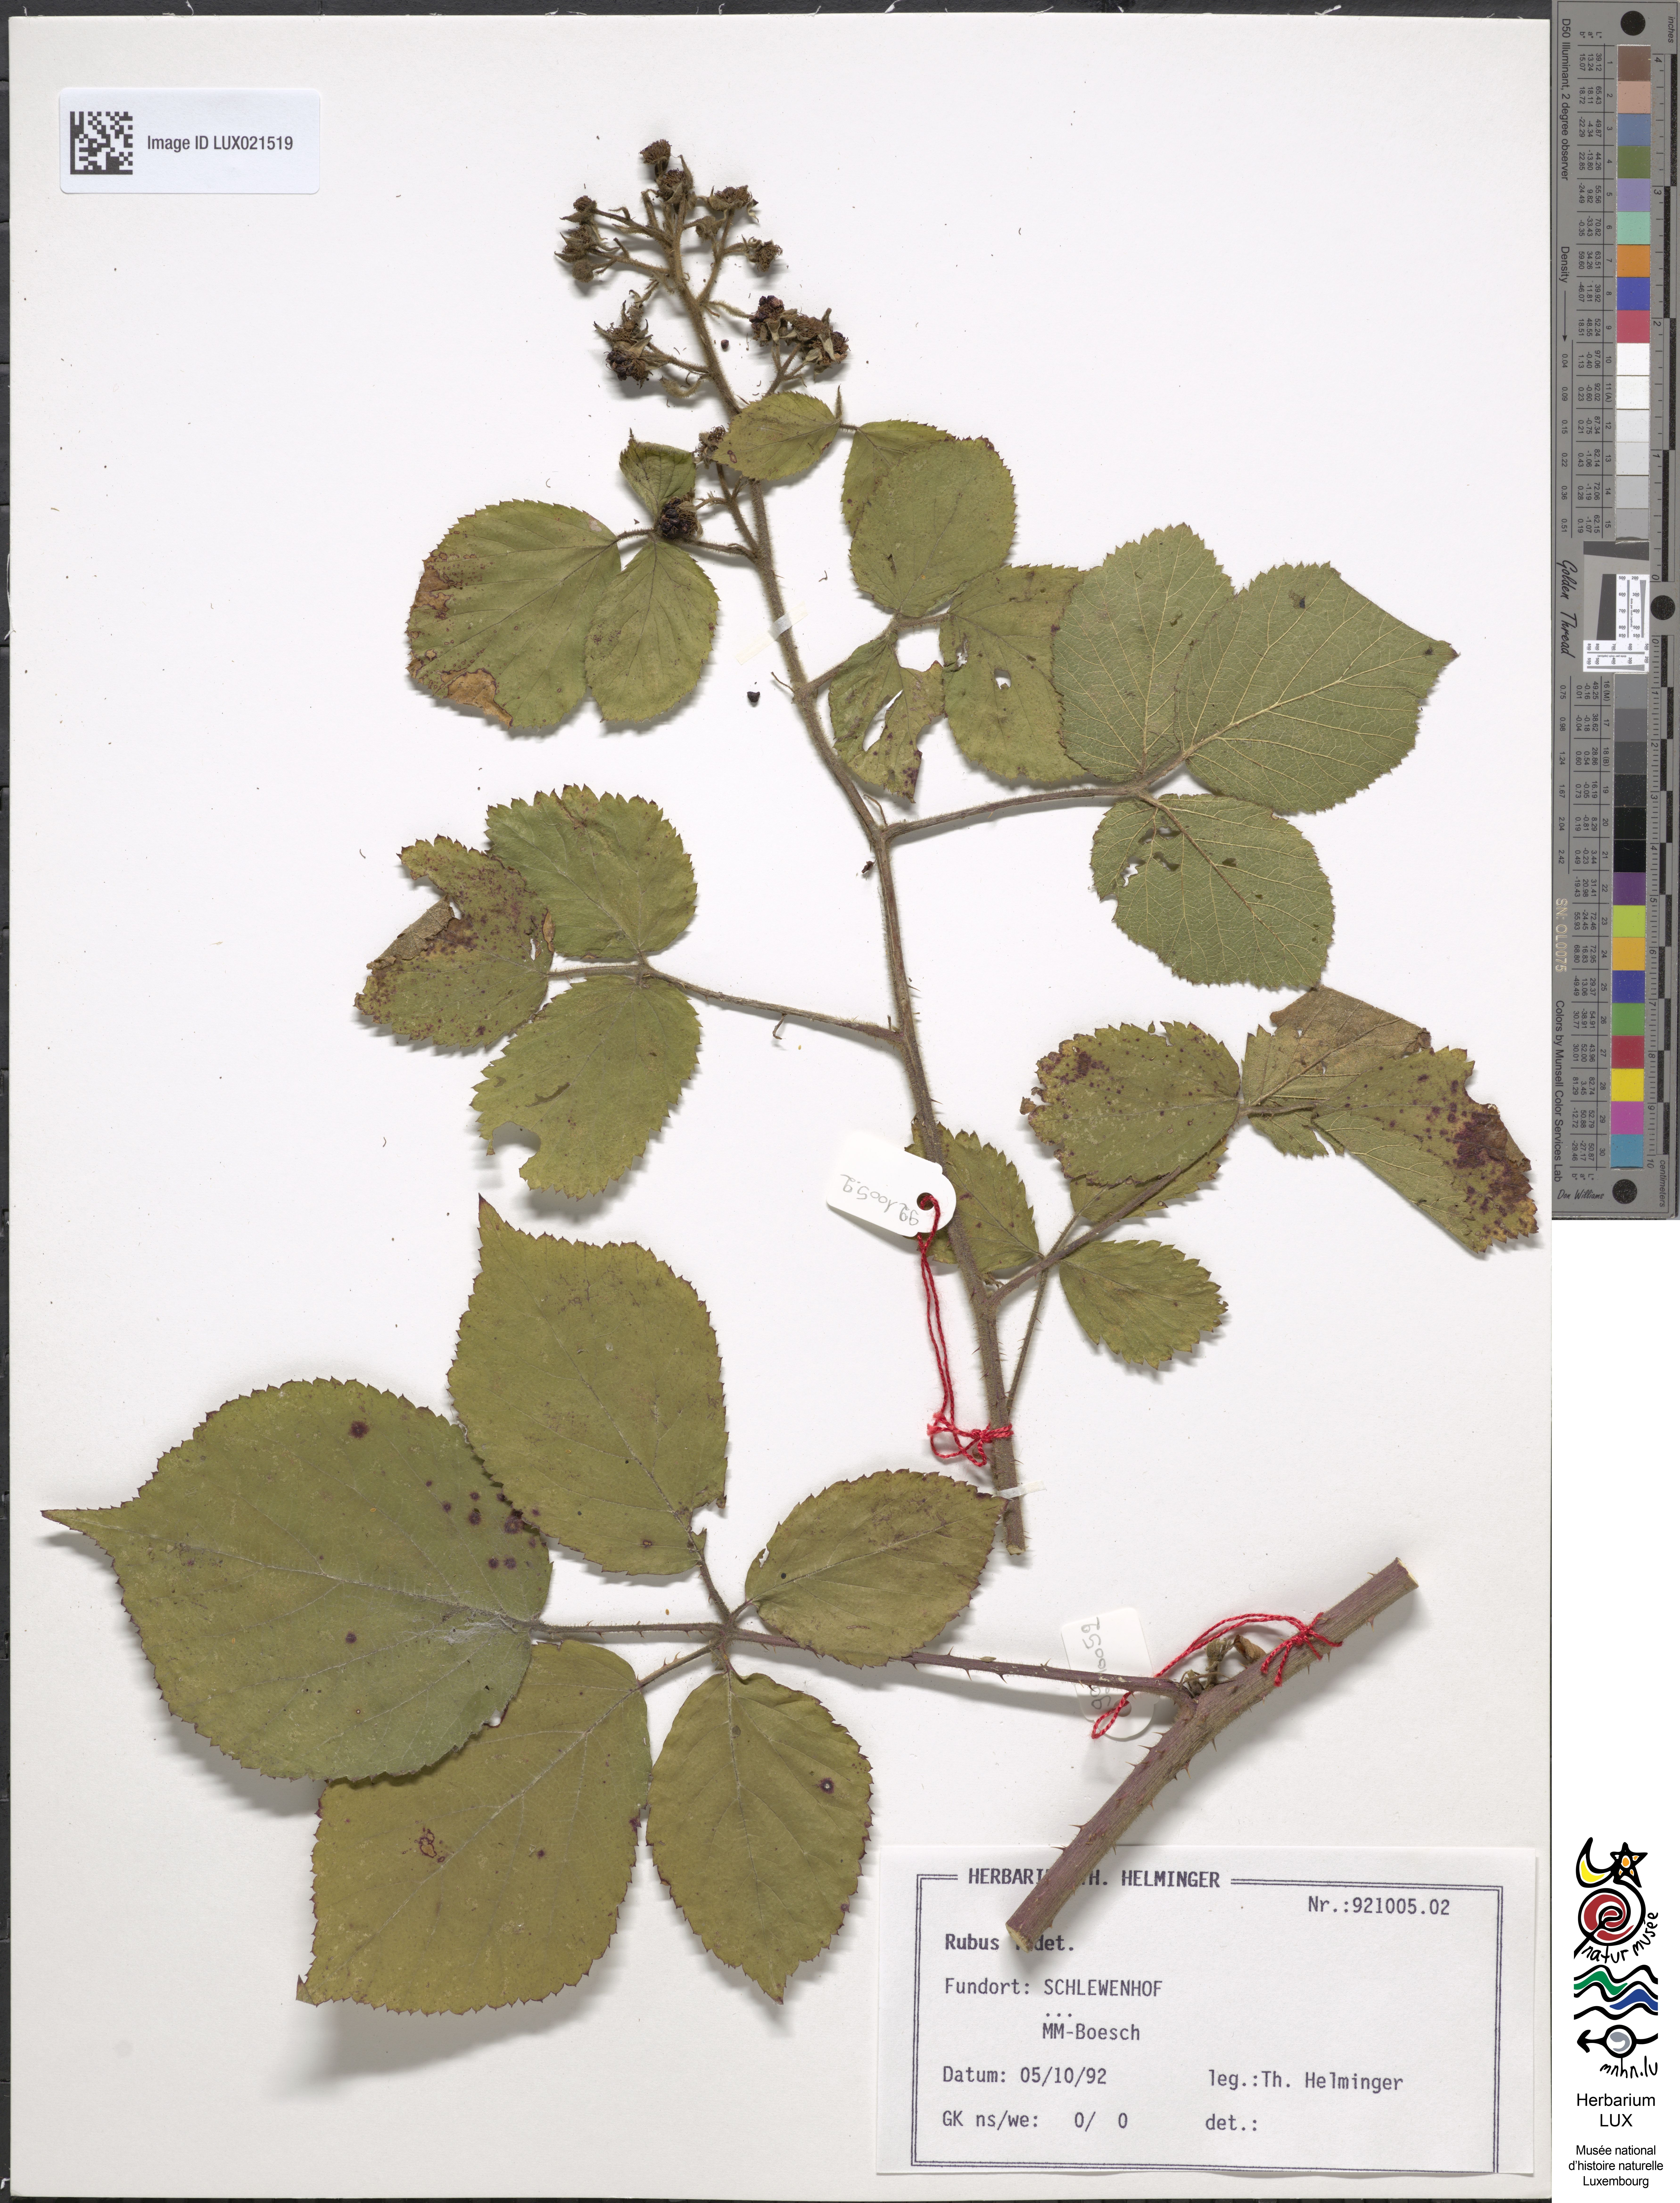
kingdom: Plantae
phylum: Tracheophyta
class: Magnoliopsida
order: Rosales
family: Rosaceae
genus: Rubus
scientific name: Rubus
